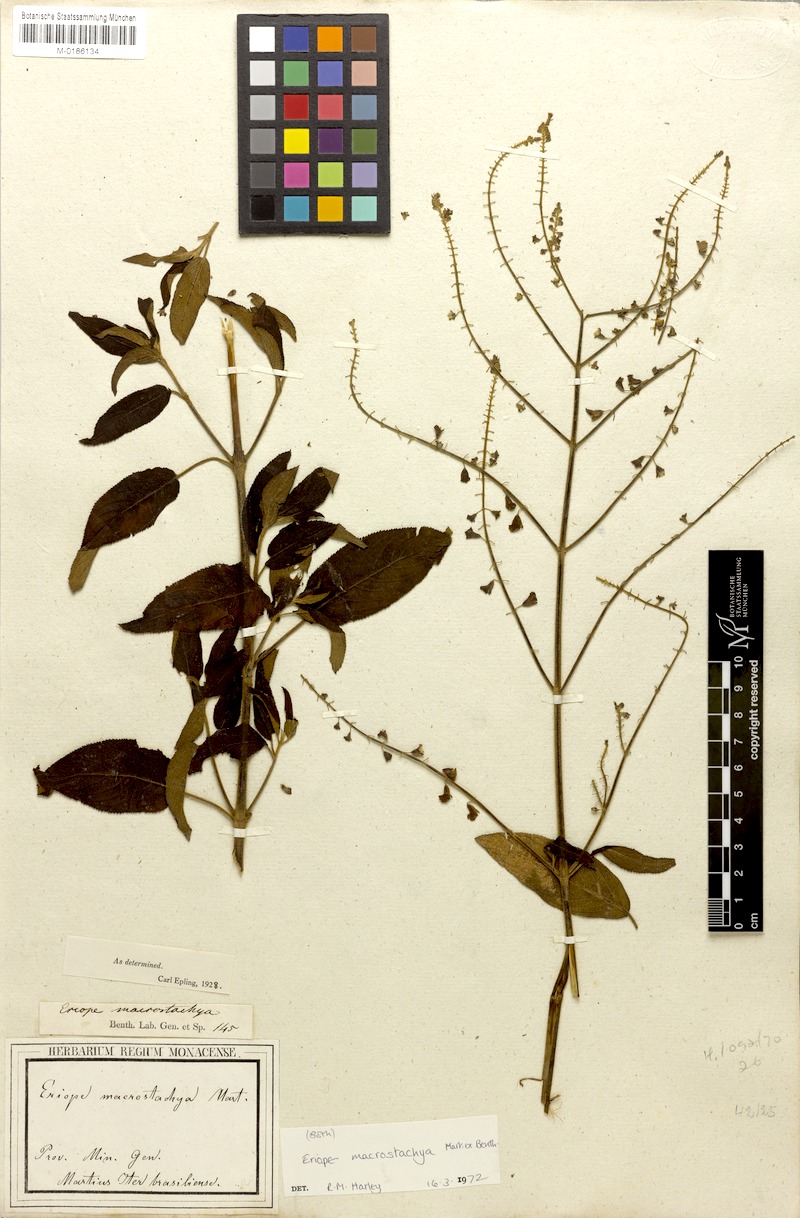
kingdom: Plantae
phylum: Tracheophyta
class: Magnoliopsida
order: Lamiales
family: Lamiaceae
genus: Eriope
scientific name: Eriope macrostachya
